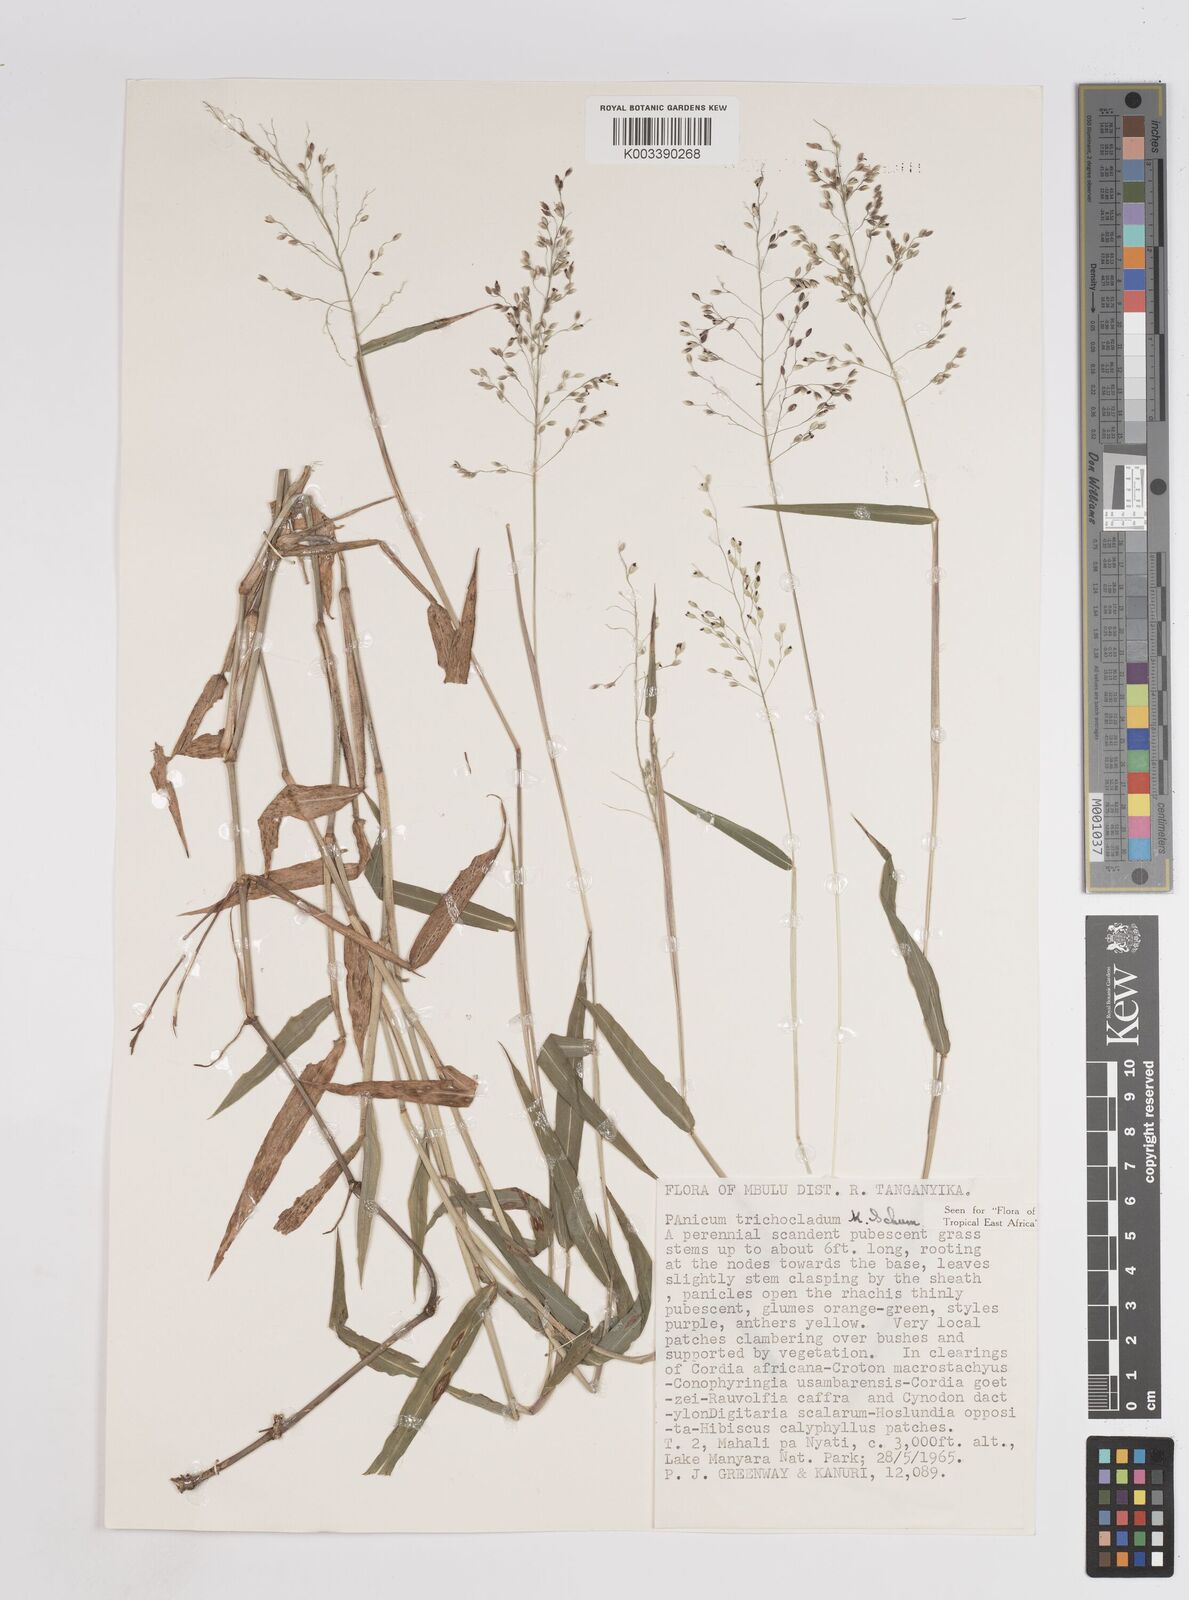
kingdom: Plantae
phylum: Tracheophyta
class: Liliopsida
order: Poales
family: Poaceae
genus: Panicum
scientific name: Panicum trichocladum
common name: Donkey grass
